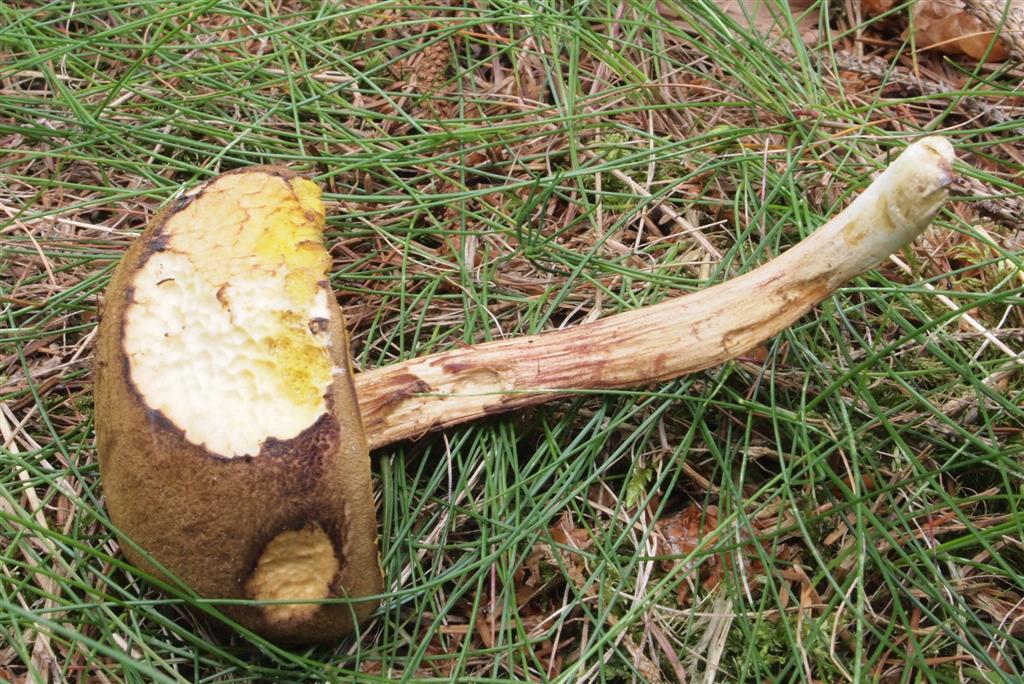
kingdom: Fungi
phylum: Basidiomycota
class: Agaricomycetes
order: Boletales
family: Boletaceae
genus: Xerocomus
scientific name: Xerocomus ferrugineus
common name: vaskeskinds-rørhat
